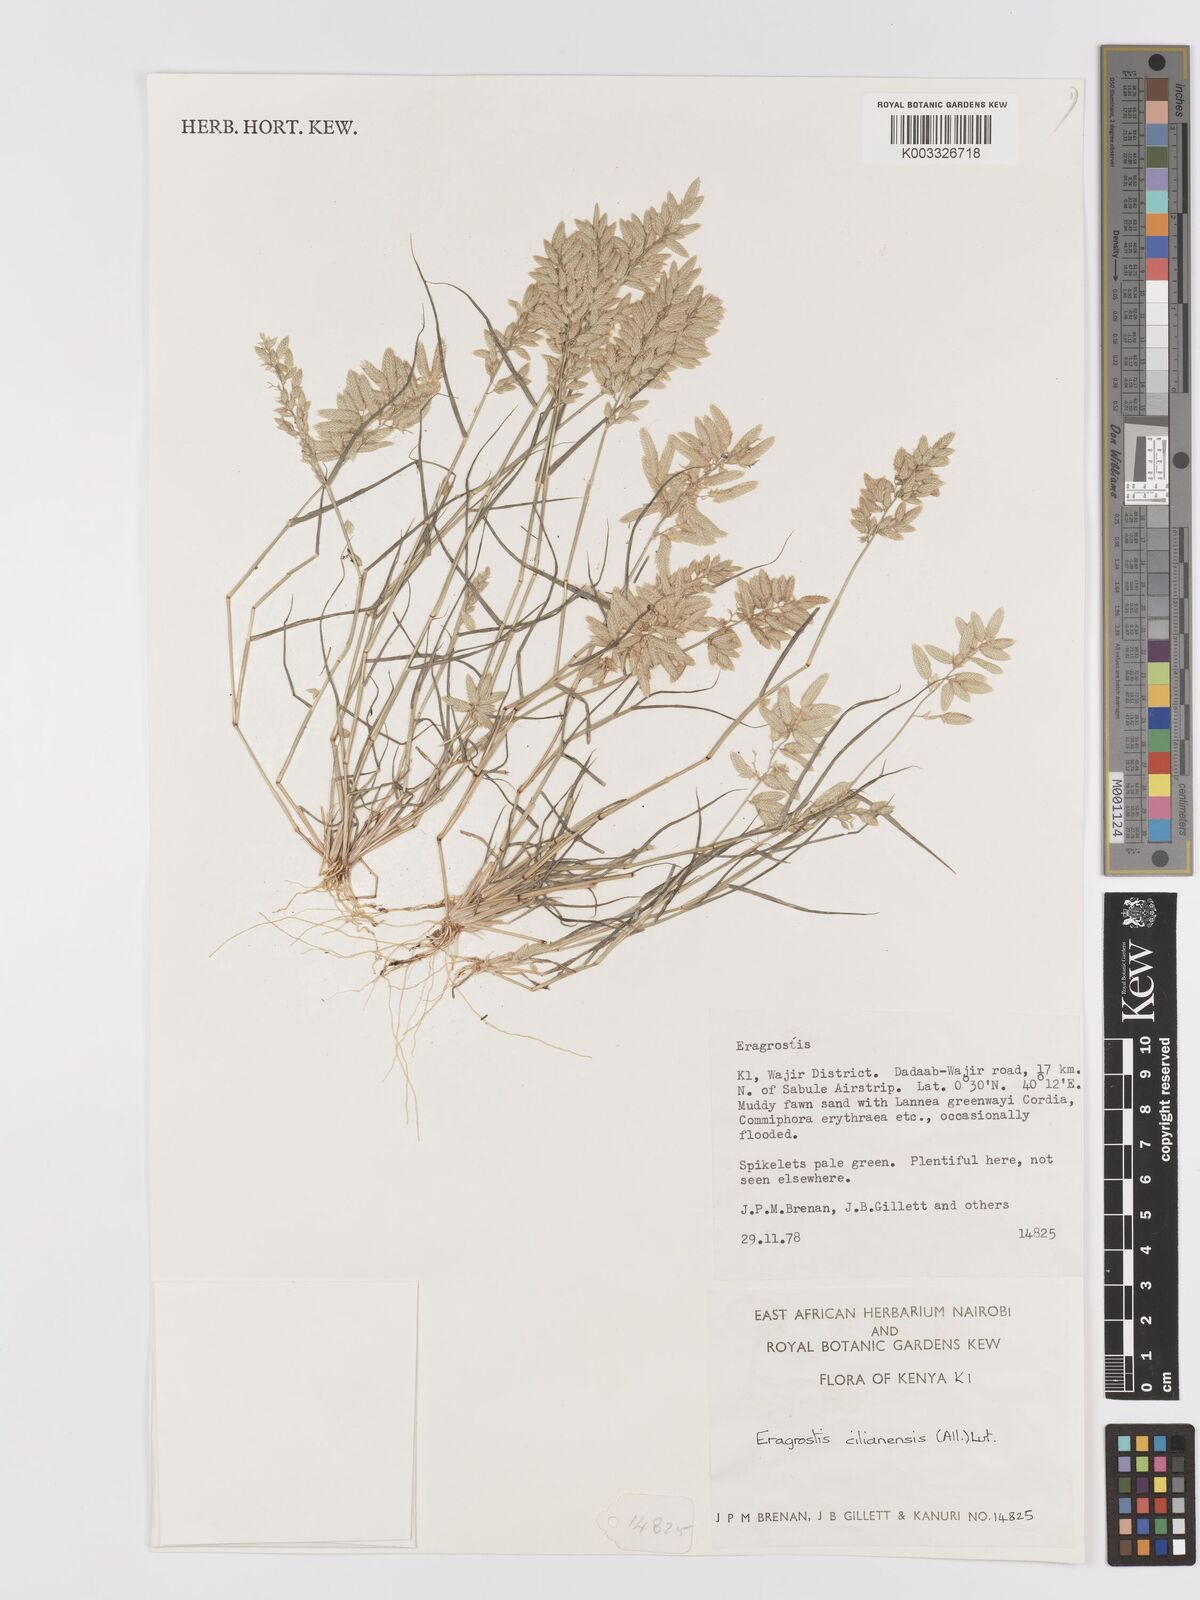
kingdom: Plantae
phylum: Tracheophyta
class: Liliopsida
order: Poales
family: Poaceae
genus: Eragrostis
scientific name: Eragrostis cilianensis
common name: Stinkgrass
